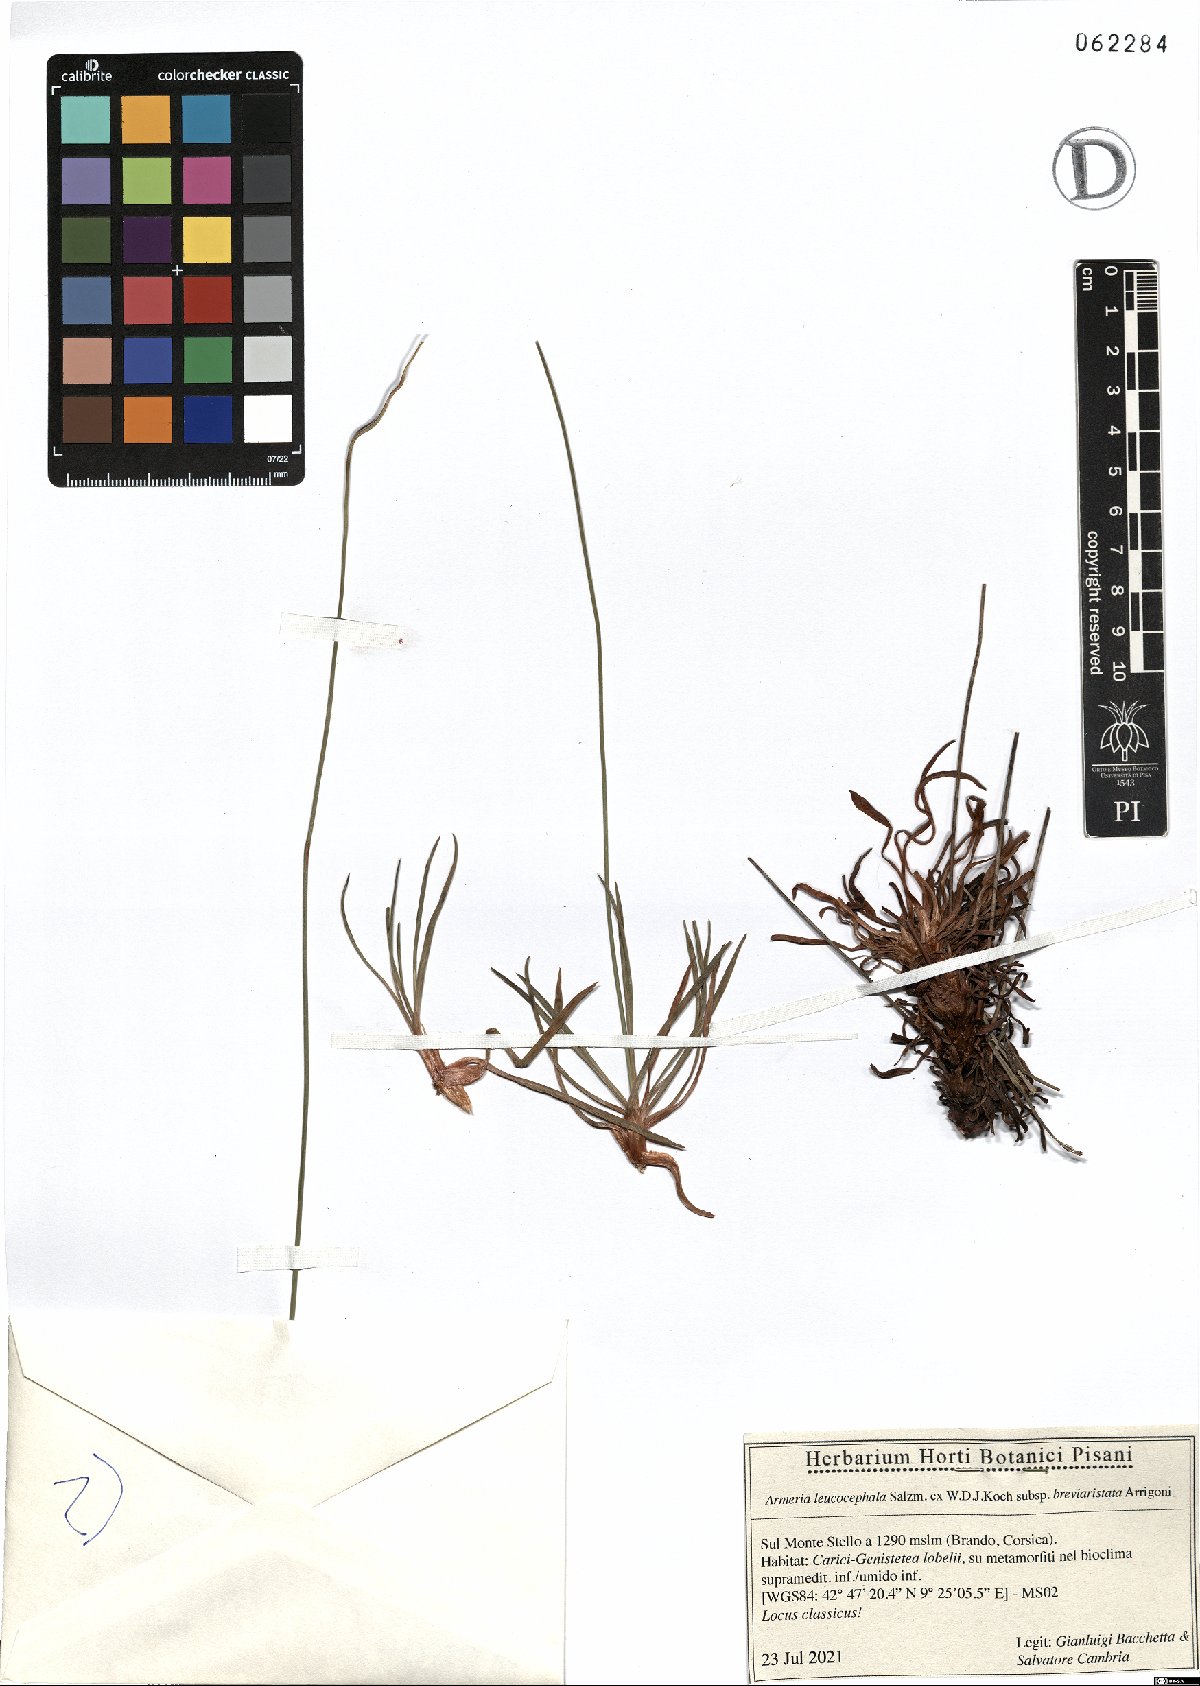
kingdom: Plantae
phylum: Tracheophyta
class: Magnoliopsida
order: Caryophyllales
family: Plumbaginaceae
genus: Armeria
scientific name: Armeria leucocephala
